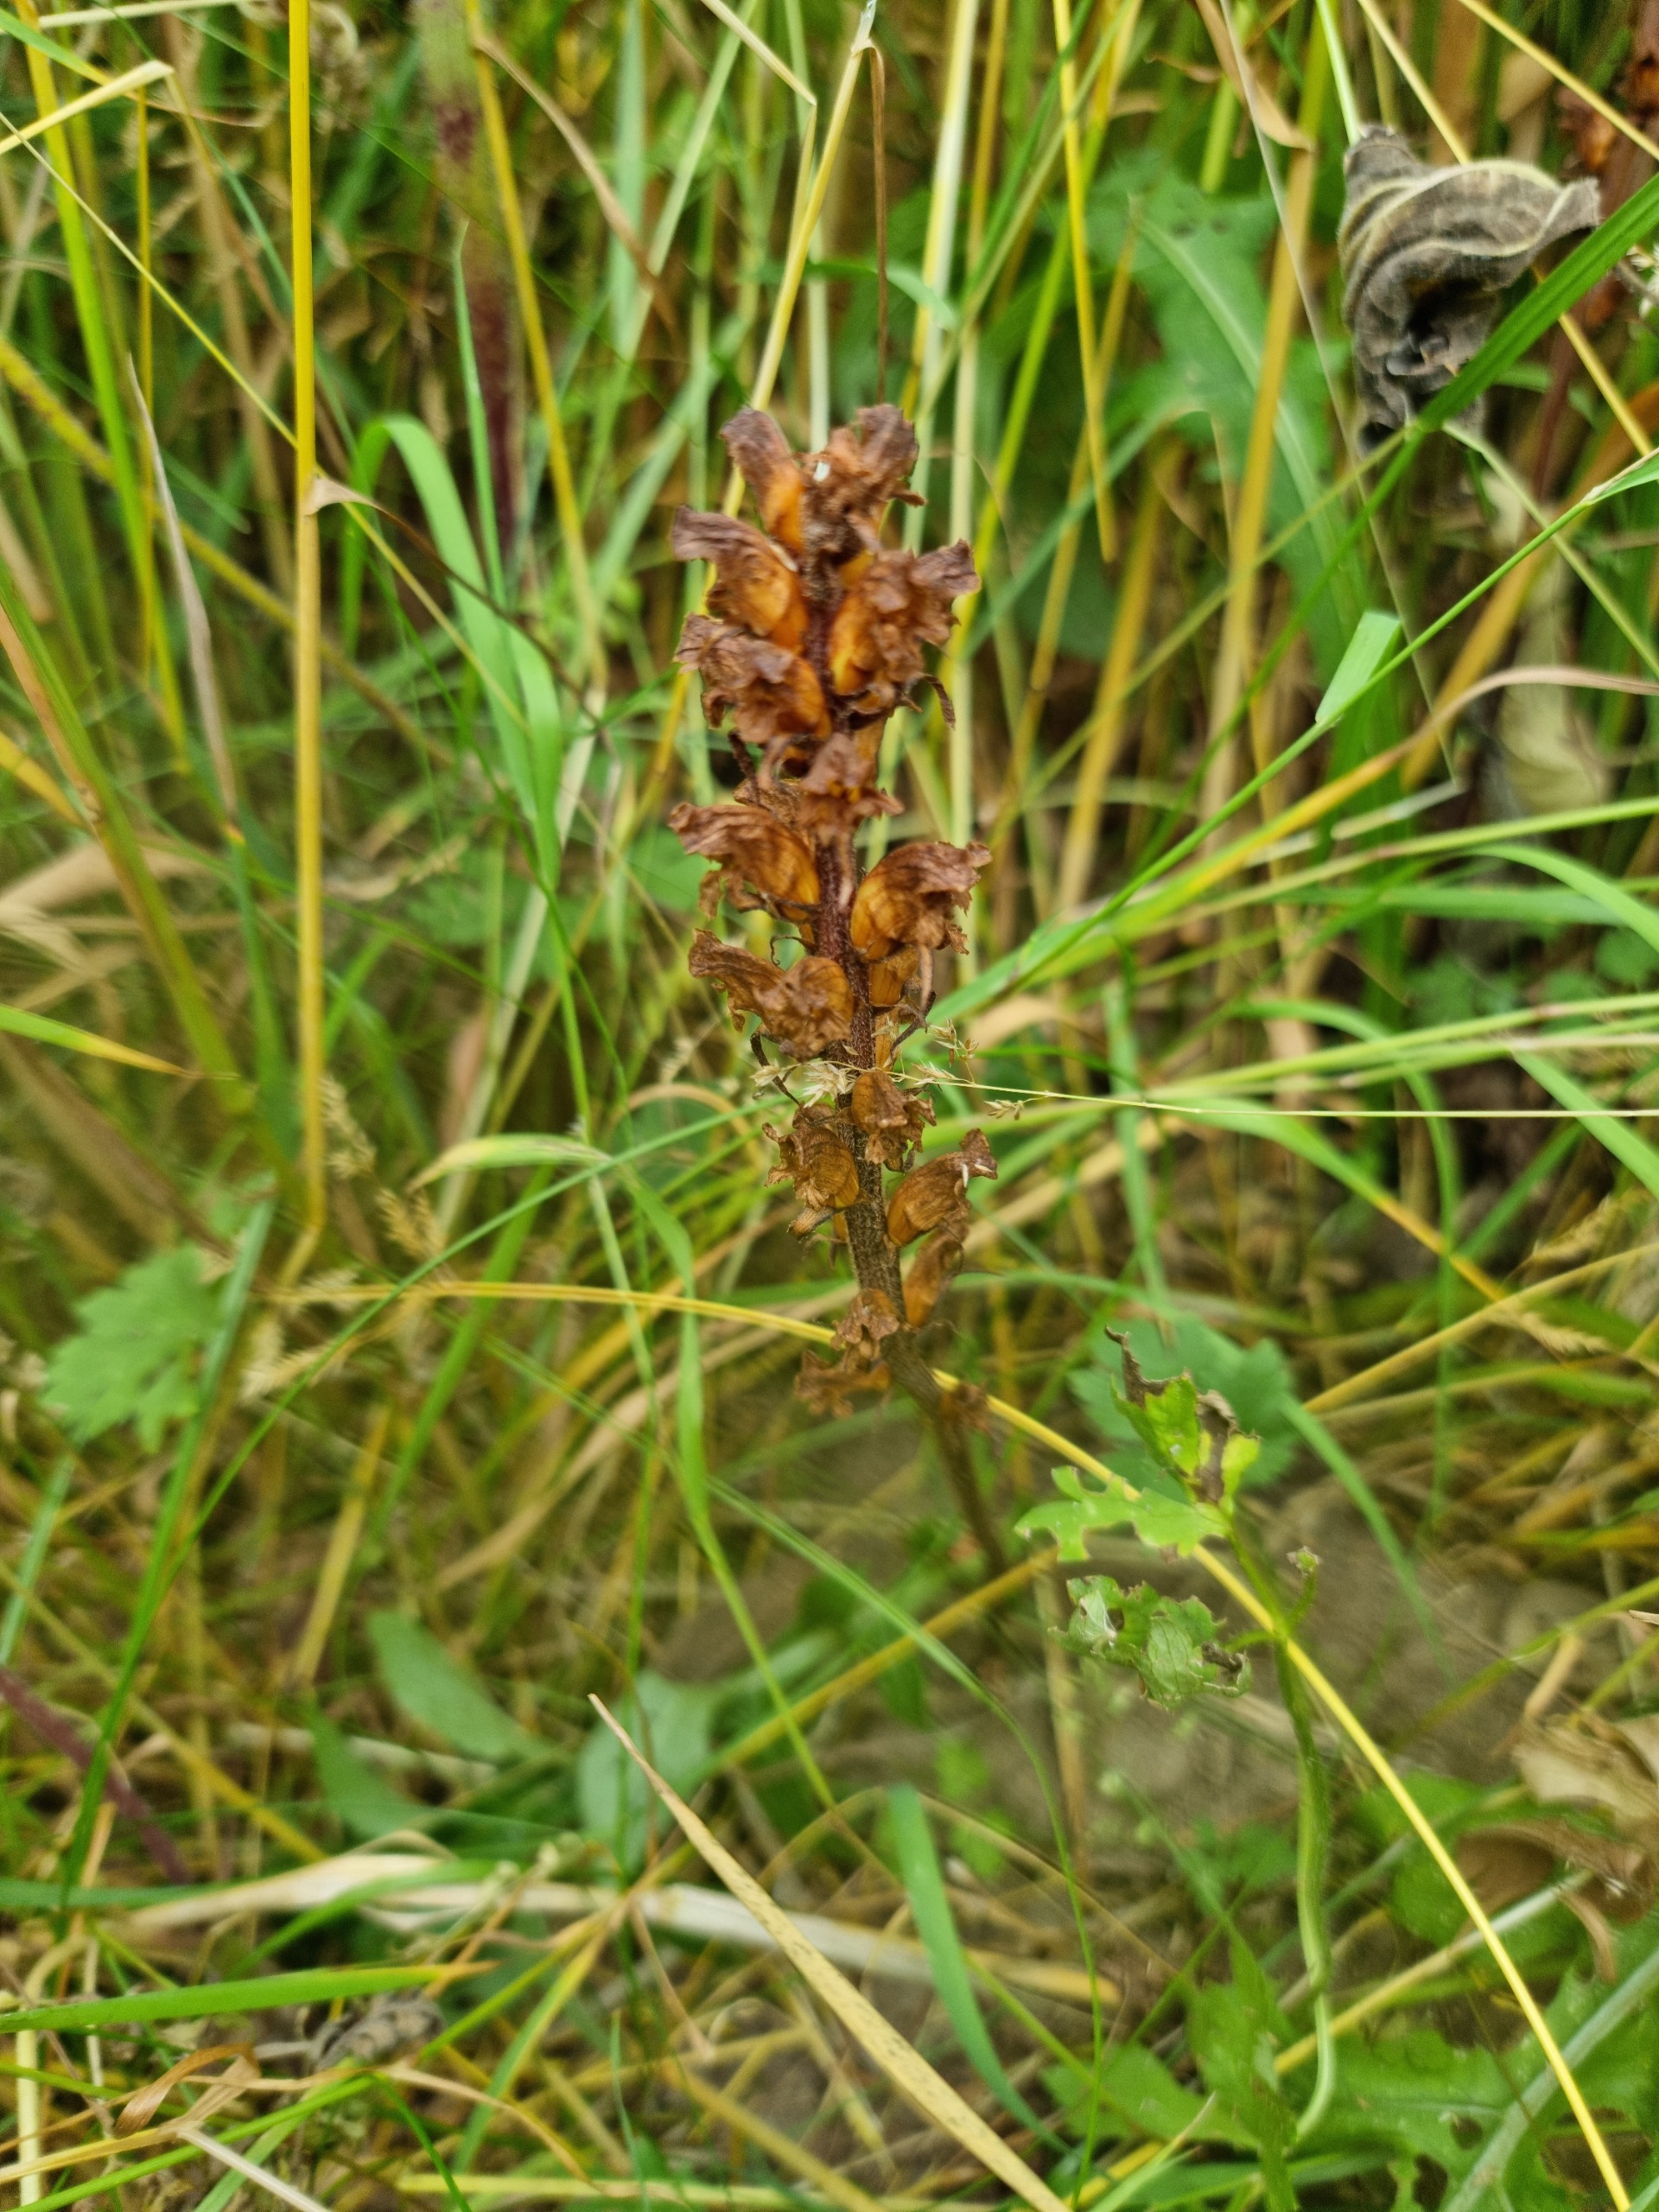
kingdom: Plantae
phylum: Tracheophyta
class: Magnoliopsida
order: Lamiales
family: Orobanchaceae
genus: Orobanche
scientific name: Orobanche reticulata
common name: Tidsel-gyvelkvæler
